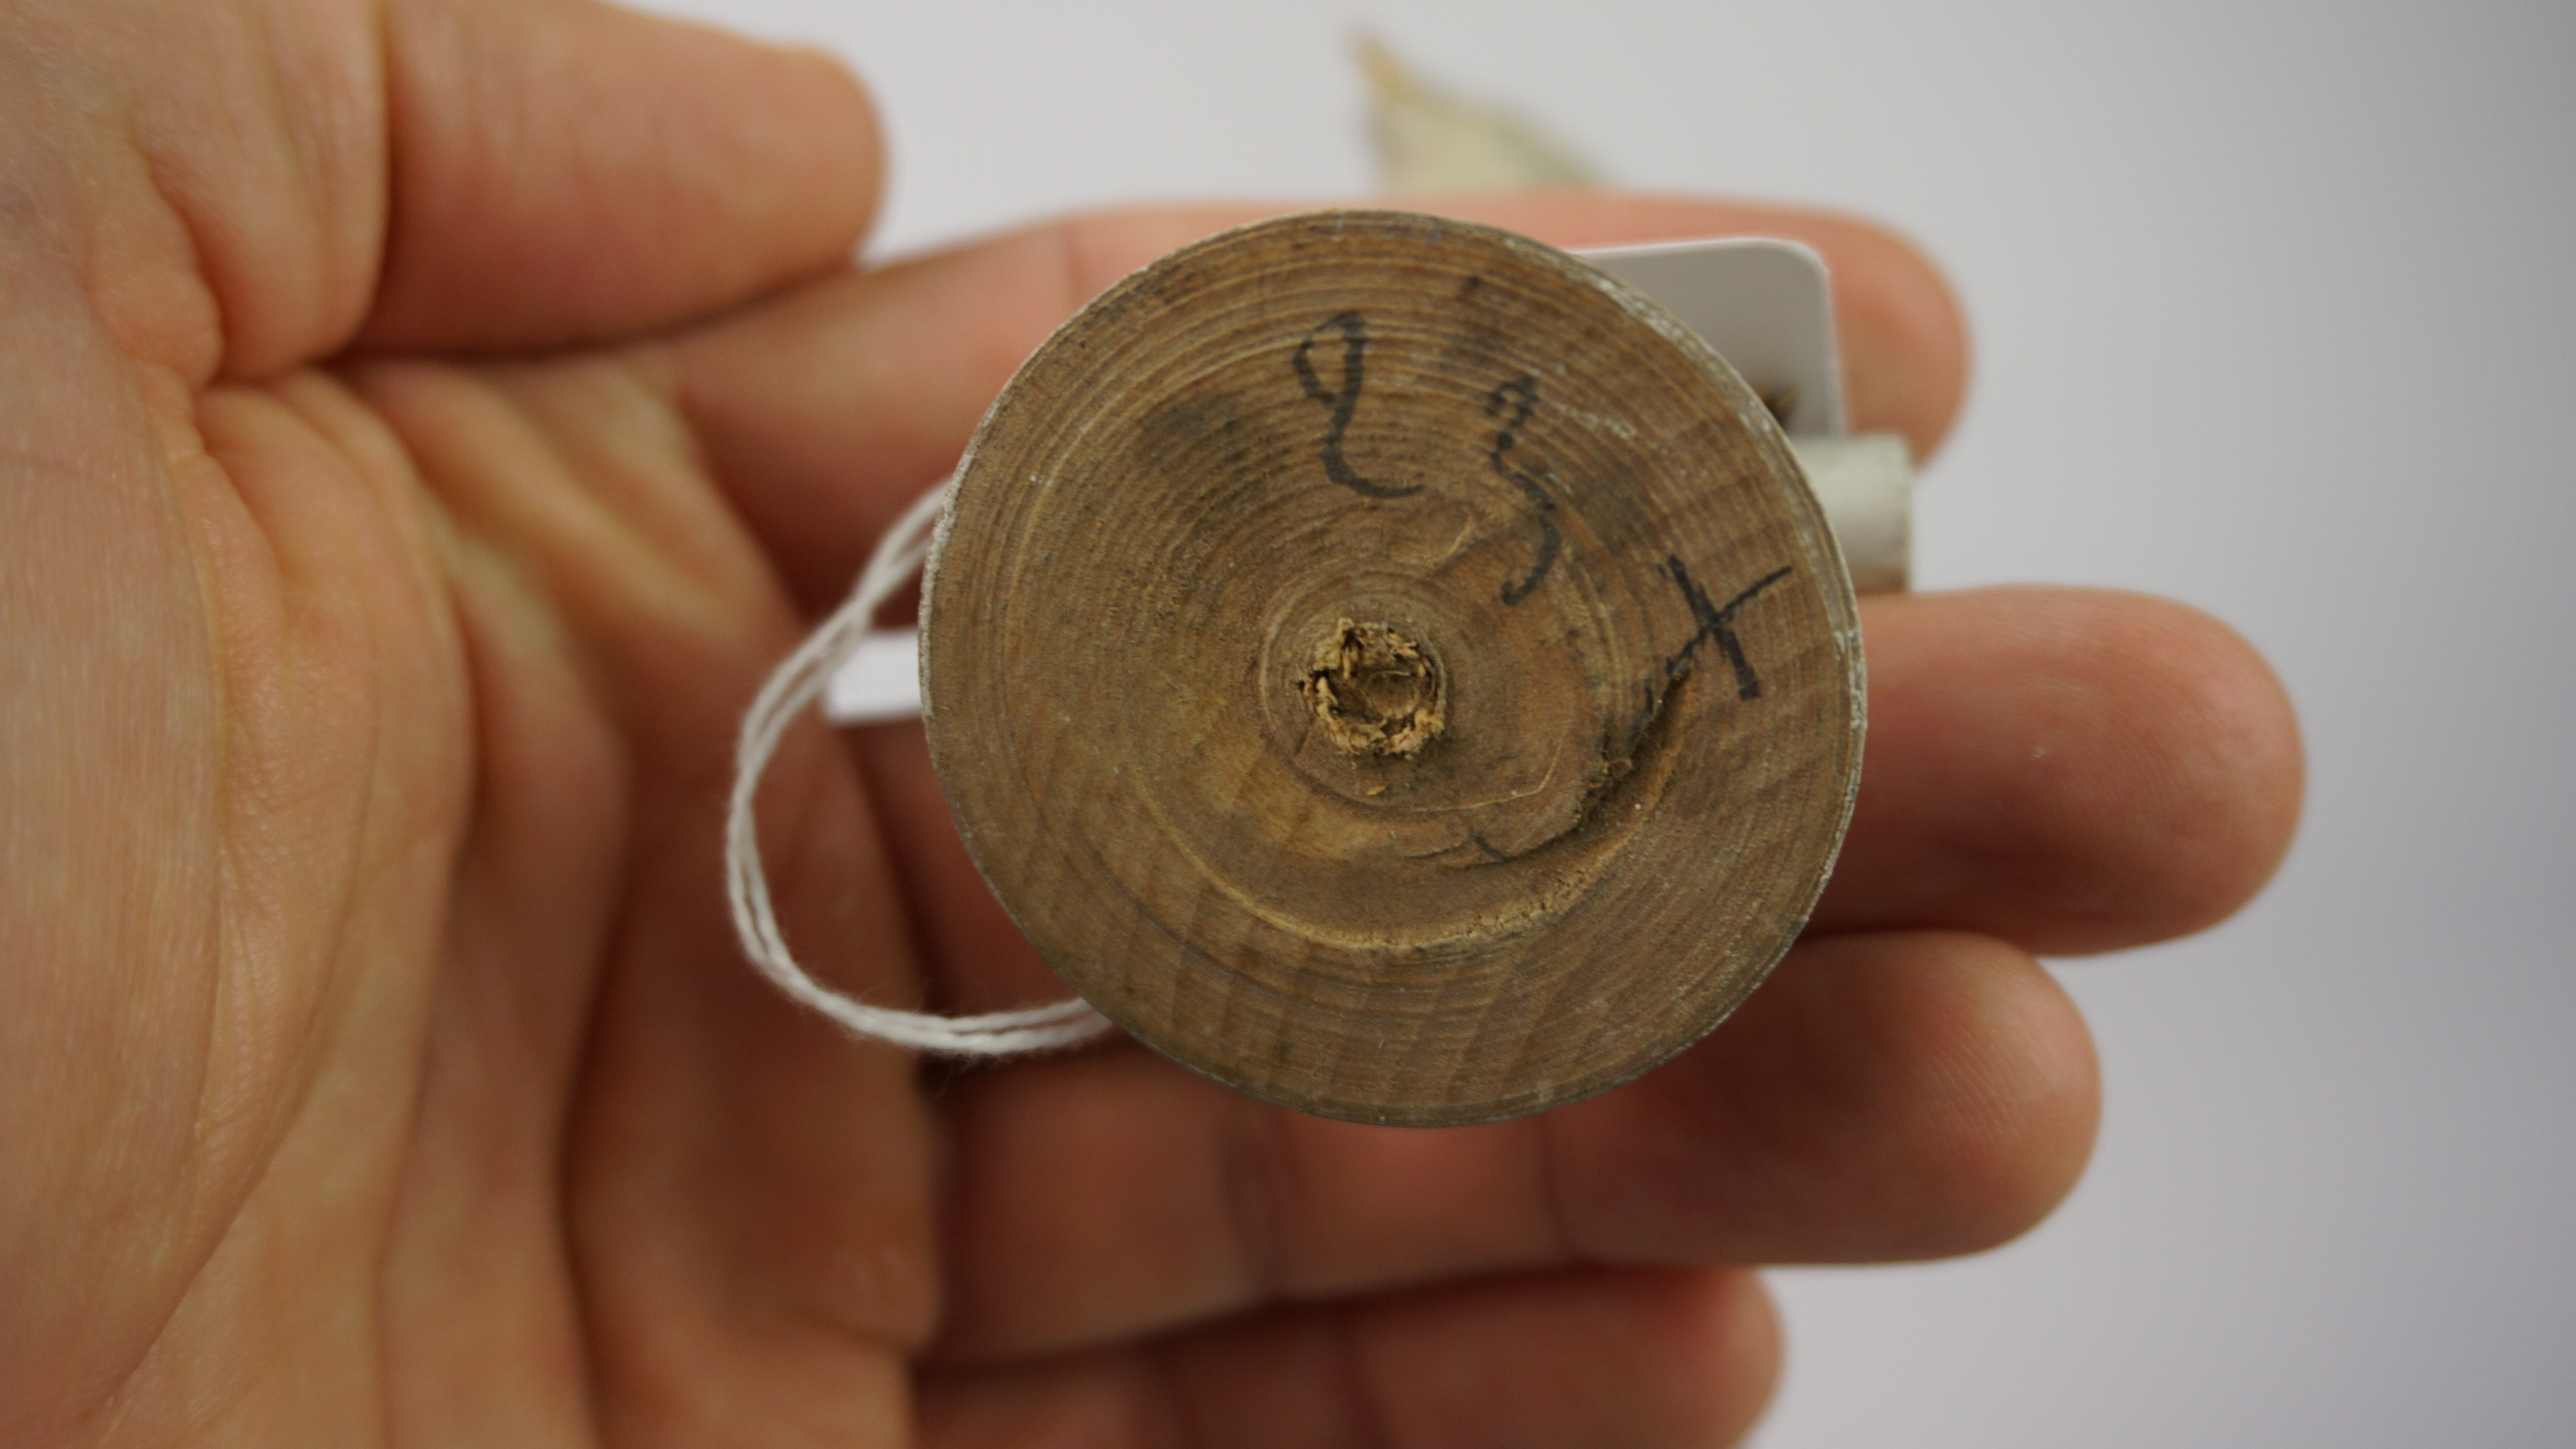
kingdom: Animalia
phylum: Chordata
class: Aves
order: Passeriformes
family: Panuridae
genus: Panurus
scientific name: Panurus biarmicus
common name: Bearded reedling
